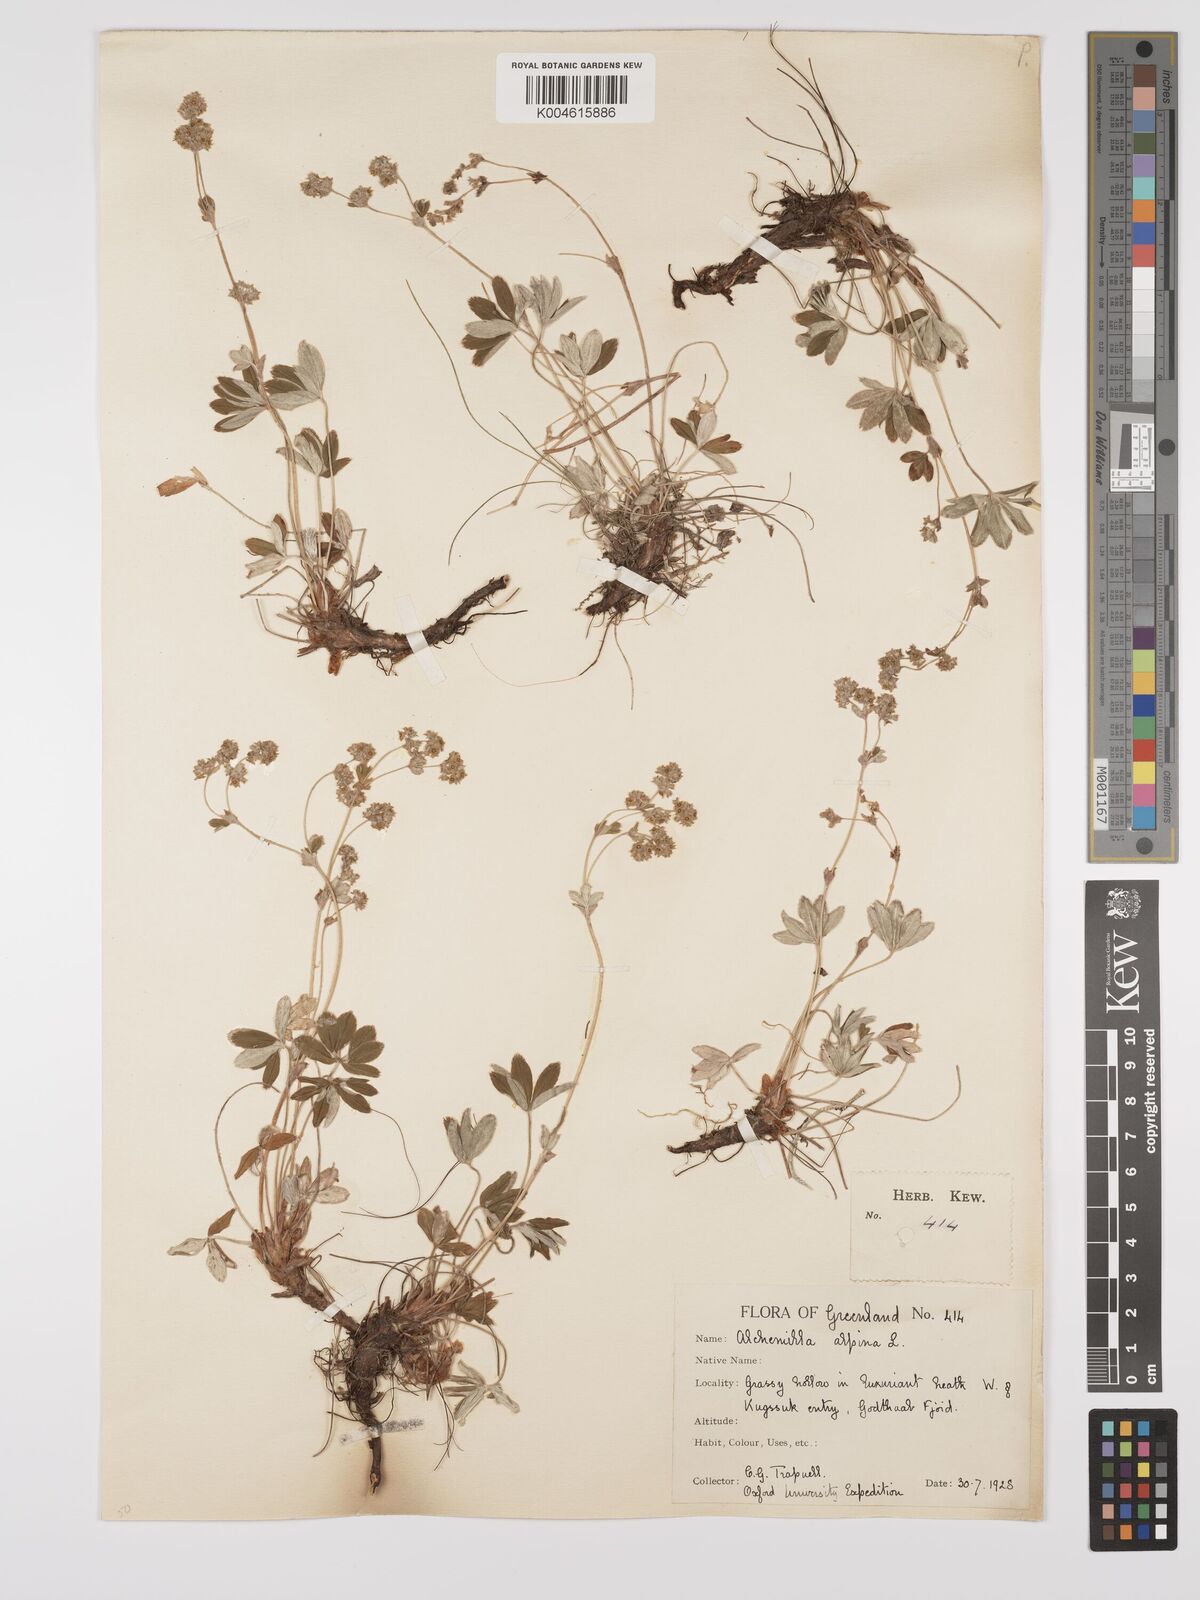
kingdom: Plantae
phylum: Tracheophyta
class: Magnoliopsida
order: Rosales
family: Rosaceae
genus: Alchemilla
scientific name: Alchemilla alpina
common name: Alpine lady's-mantle
